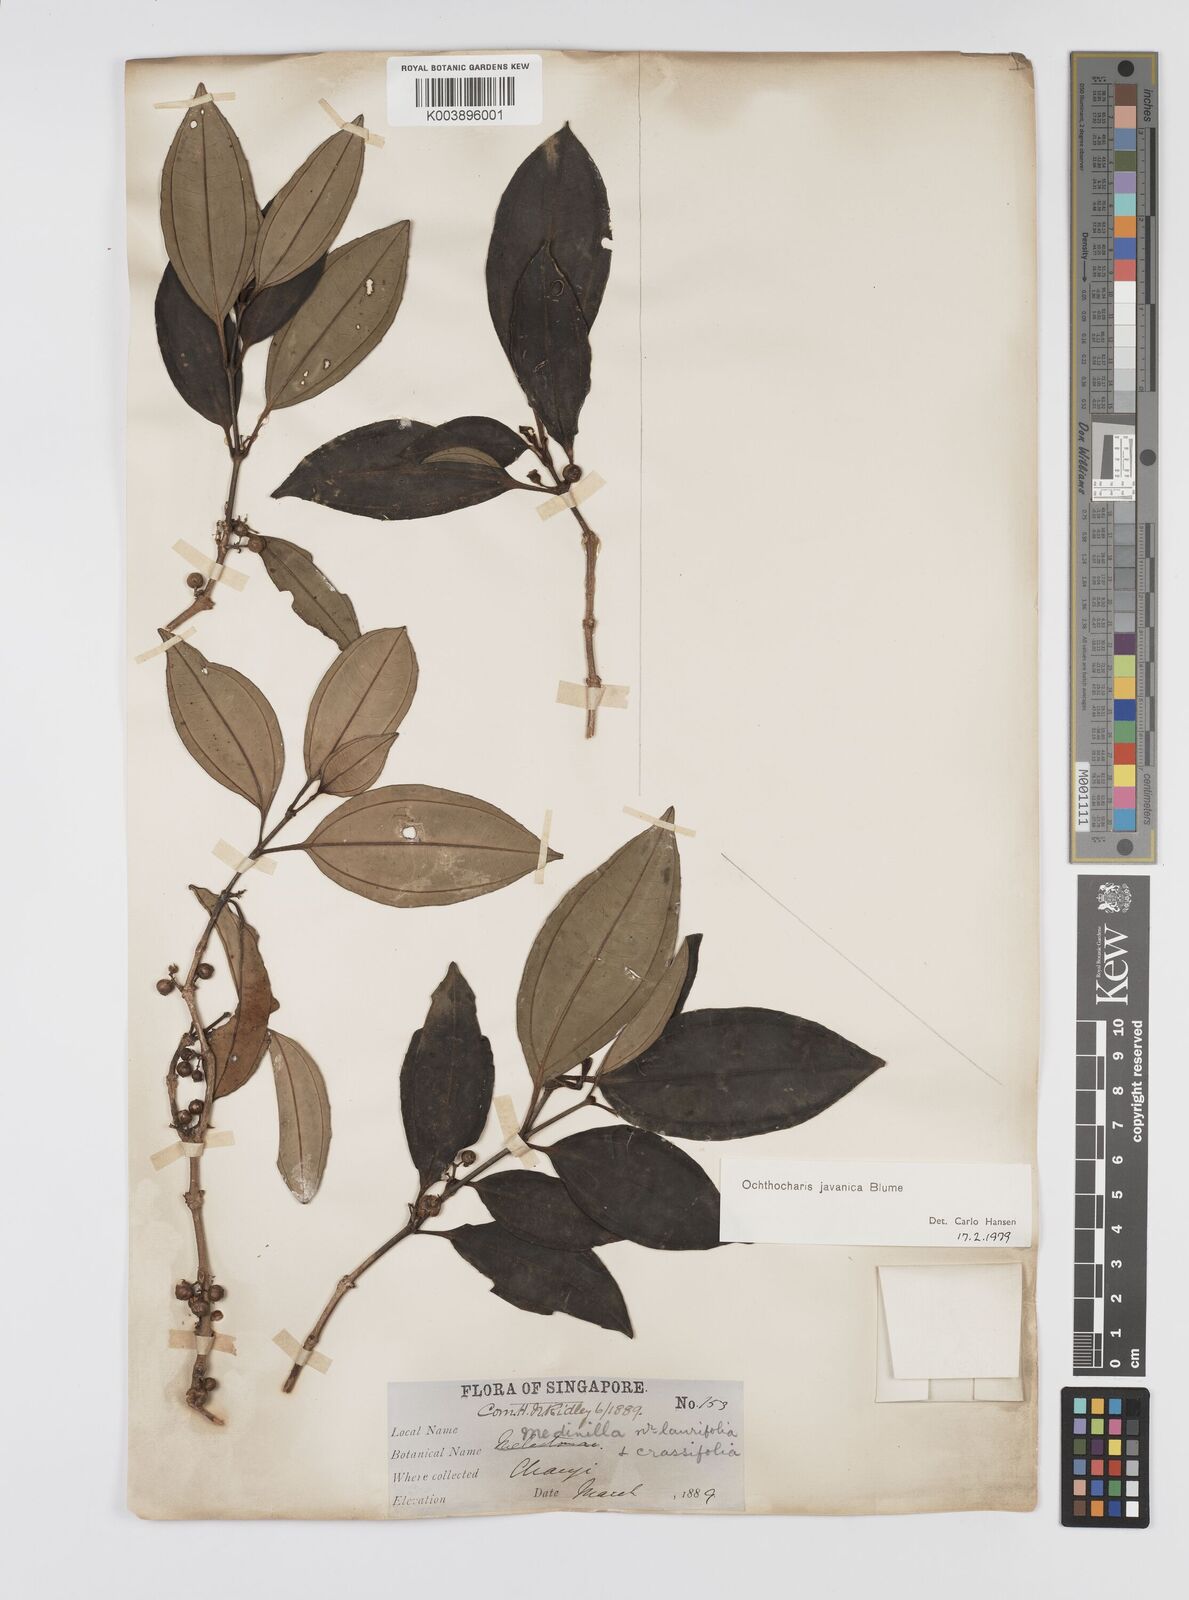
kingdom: Plantae
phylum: Tracheophyta
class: Magnoliopsida
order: Myrtales
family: Melastomataceae
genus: Ochthocharis
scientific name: Ochthocharis javanica
